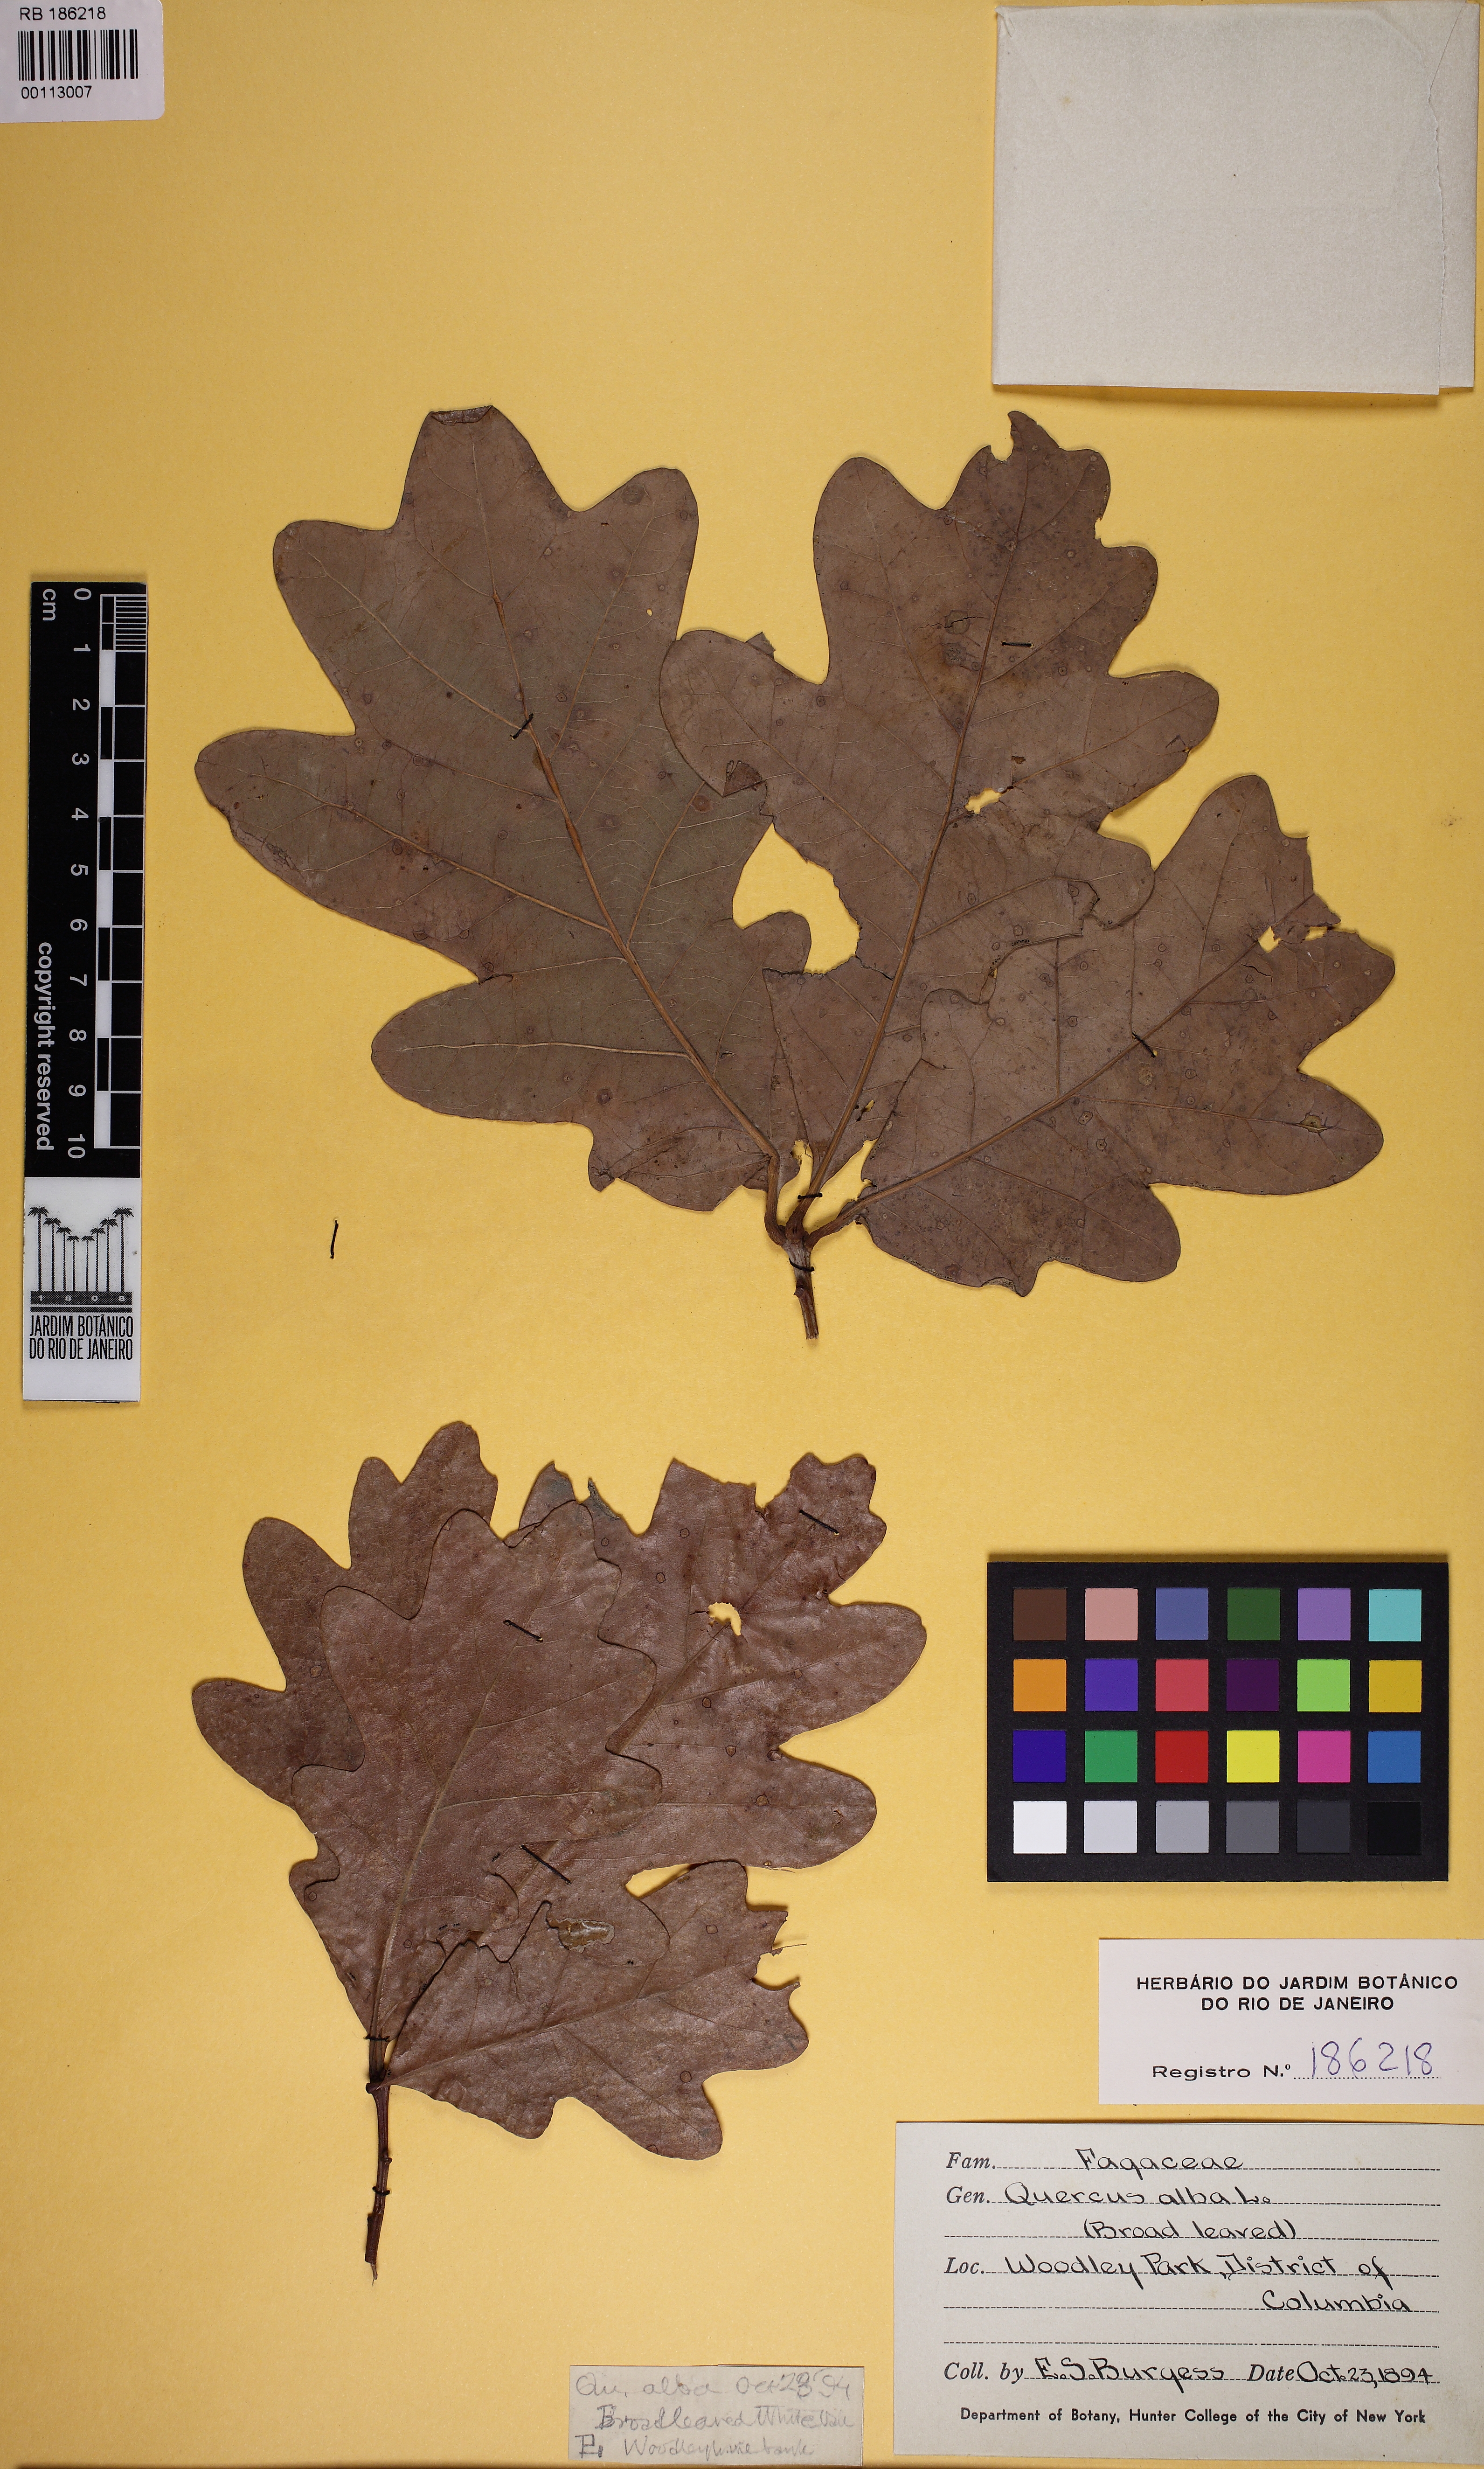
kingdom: Plantae
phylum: Tracheophyta
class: Magnoliopsida
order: Fagales
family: Fagaceae
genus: Quercus
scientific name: Quercus alba
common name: White oak
